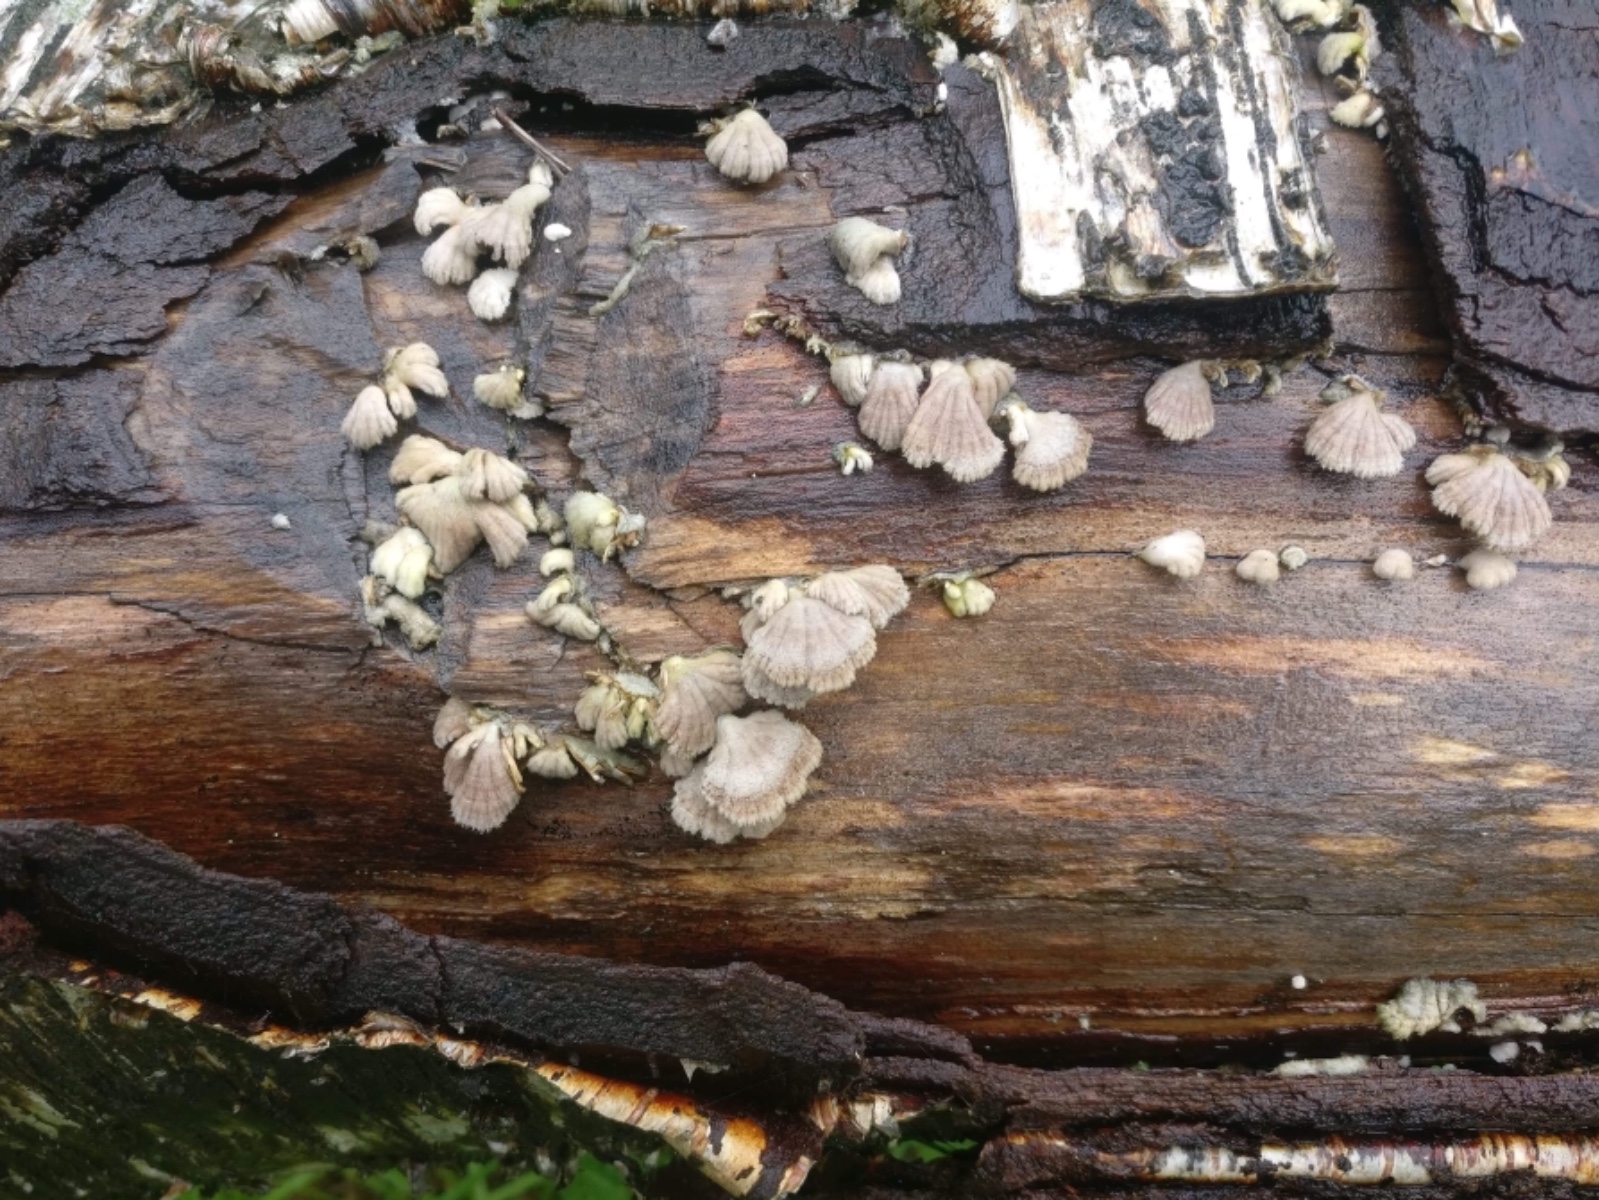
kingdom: Fungi
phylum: Basidiomycota
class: Agaricomycetes
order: Agaricales
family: Schizophyllaceae
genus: Schizophyllum
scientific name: Schizophyllum commune
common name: kløvblad
